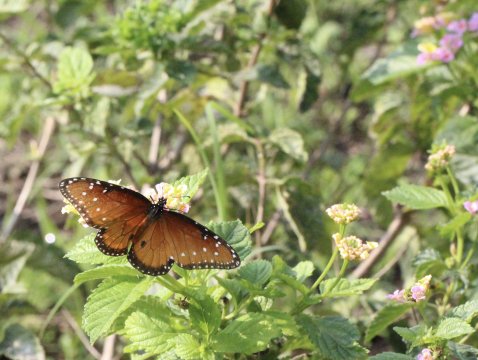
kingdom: Animalia
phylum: Arthropoda
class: Insecta
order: Lepidoptera
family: Nymphalidae
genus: Danaus
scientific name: Danaus gilippus
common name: Queen
